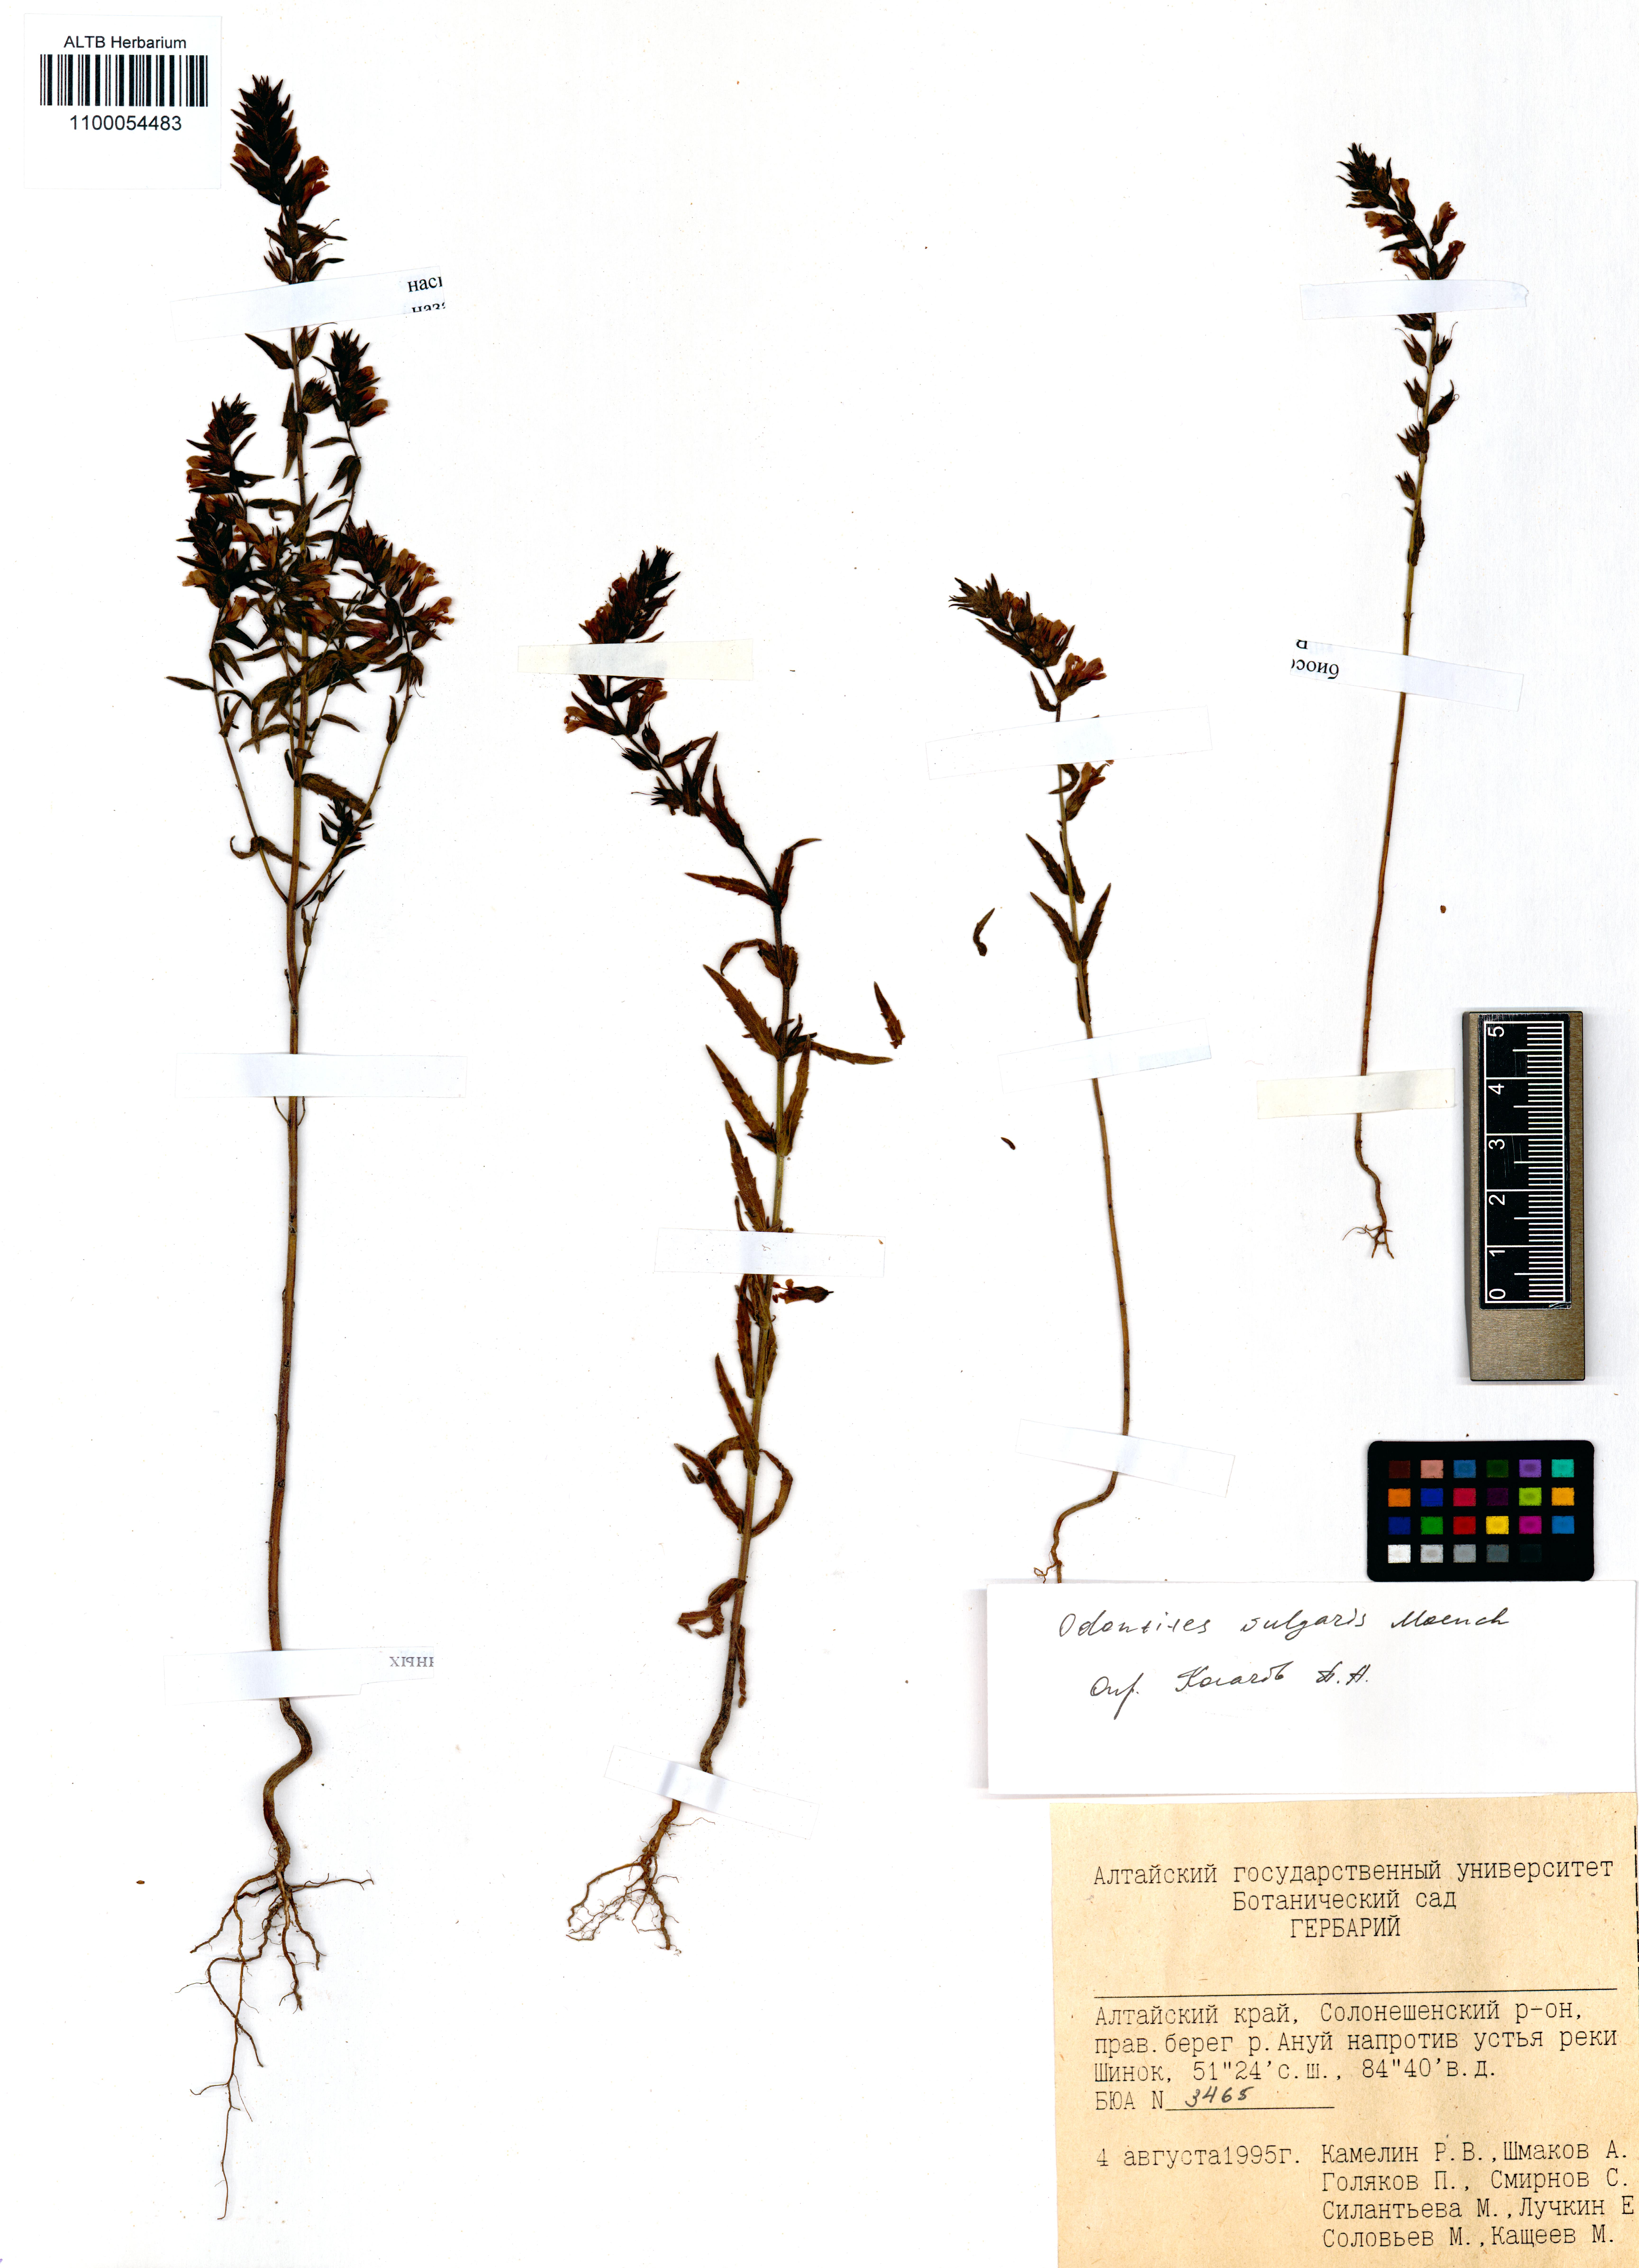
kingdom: Plantae
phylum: Tracheophyta
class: Magnoliopsida
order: Lamiales
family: Orobanchaceae
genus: Odontites
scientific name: Odontites vulgaris
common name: Broomrape
